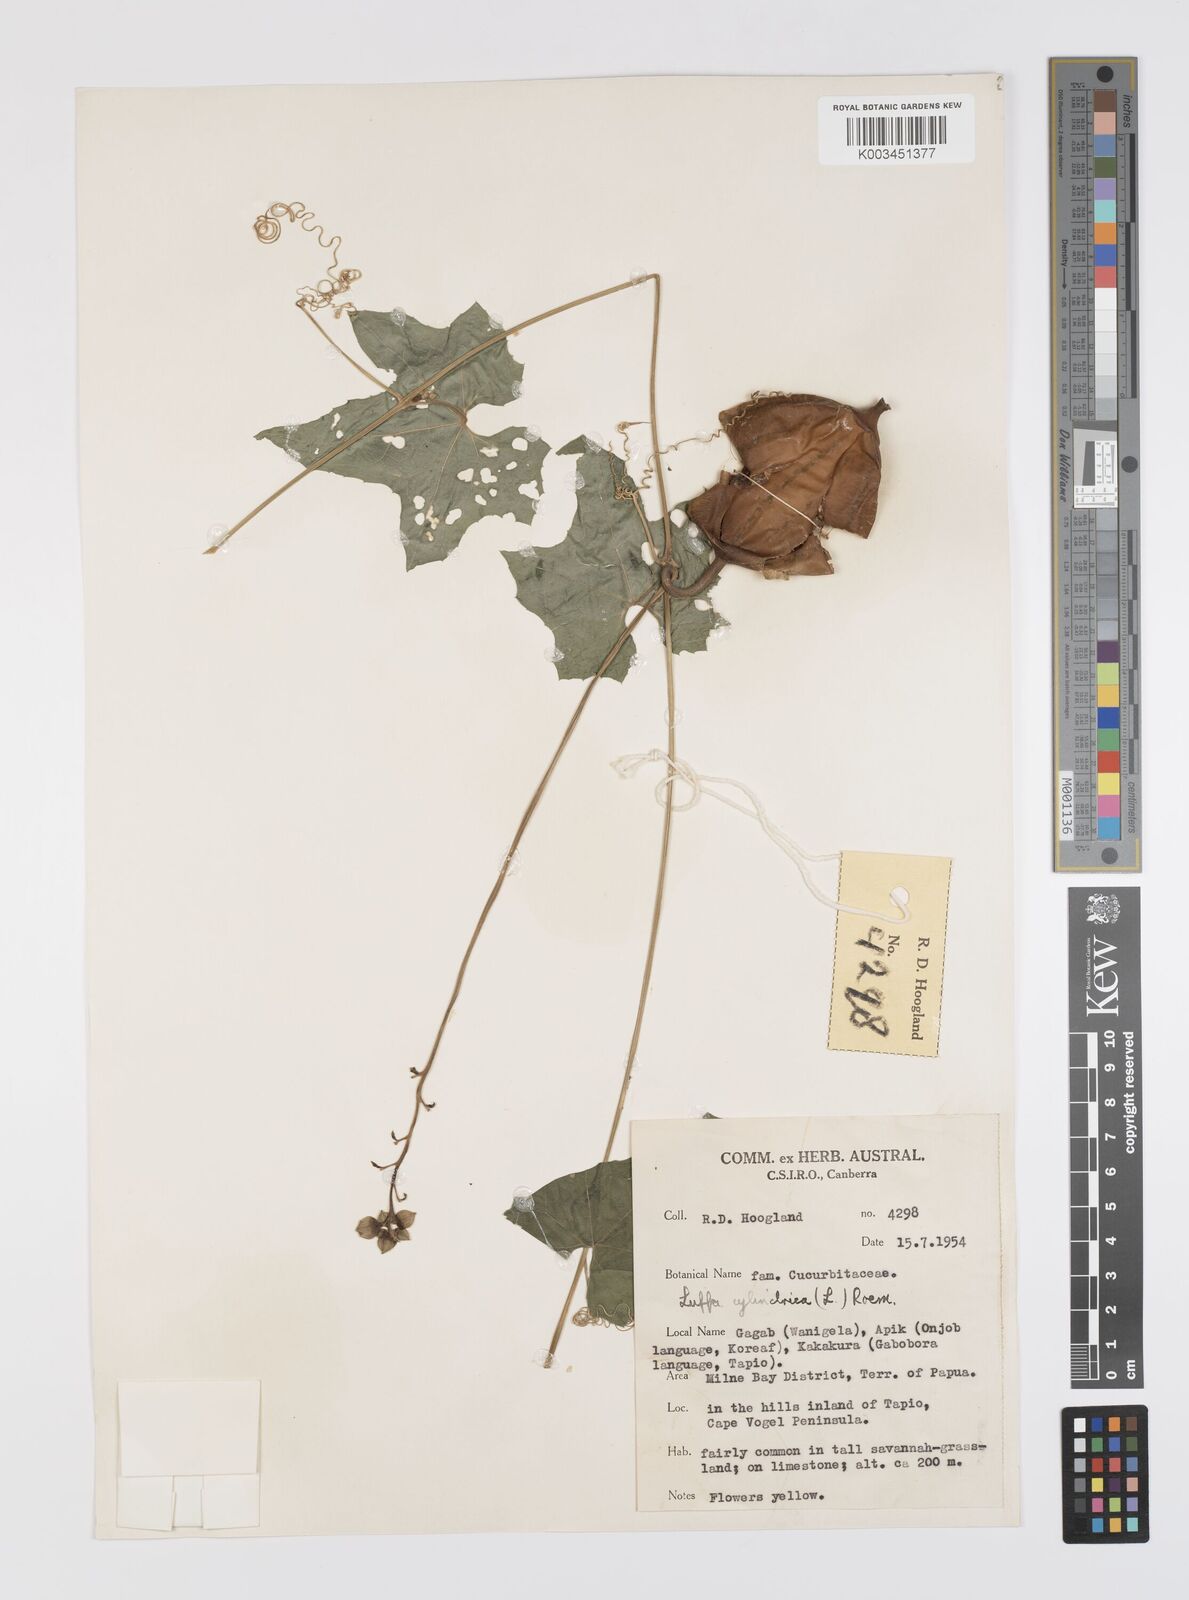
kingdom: Plantae
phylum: Tracheophyta
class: Magnoliopsida
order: Cucurbitales
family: Cucurbitaceae
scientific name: Cucurbitaceae
